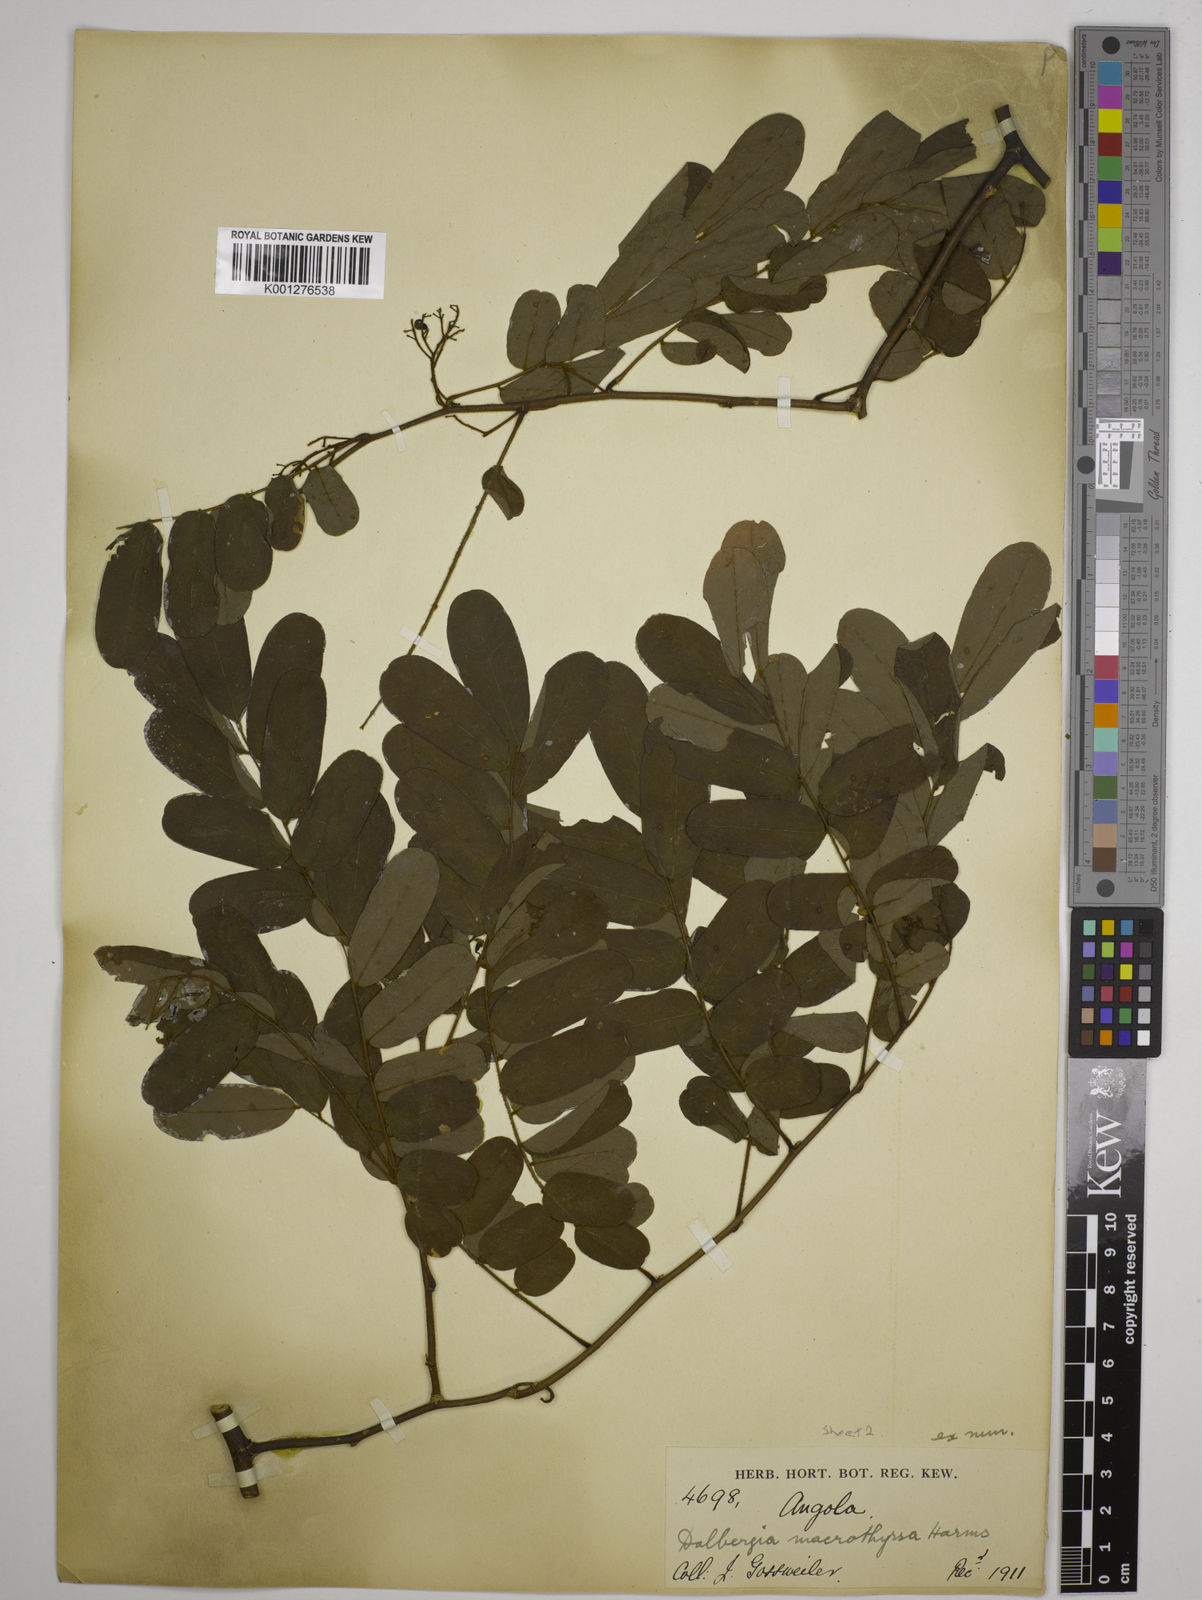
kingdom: Plantae
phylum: Tracheophyta
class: Magnoliopsida
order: Fabales
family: Fabaceae
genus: Dalbergia
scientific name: Dalbergia saxatilis
